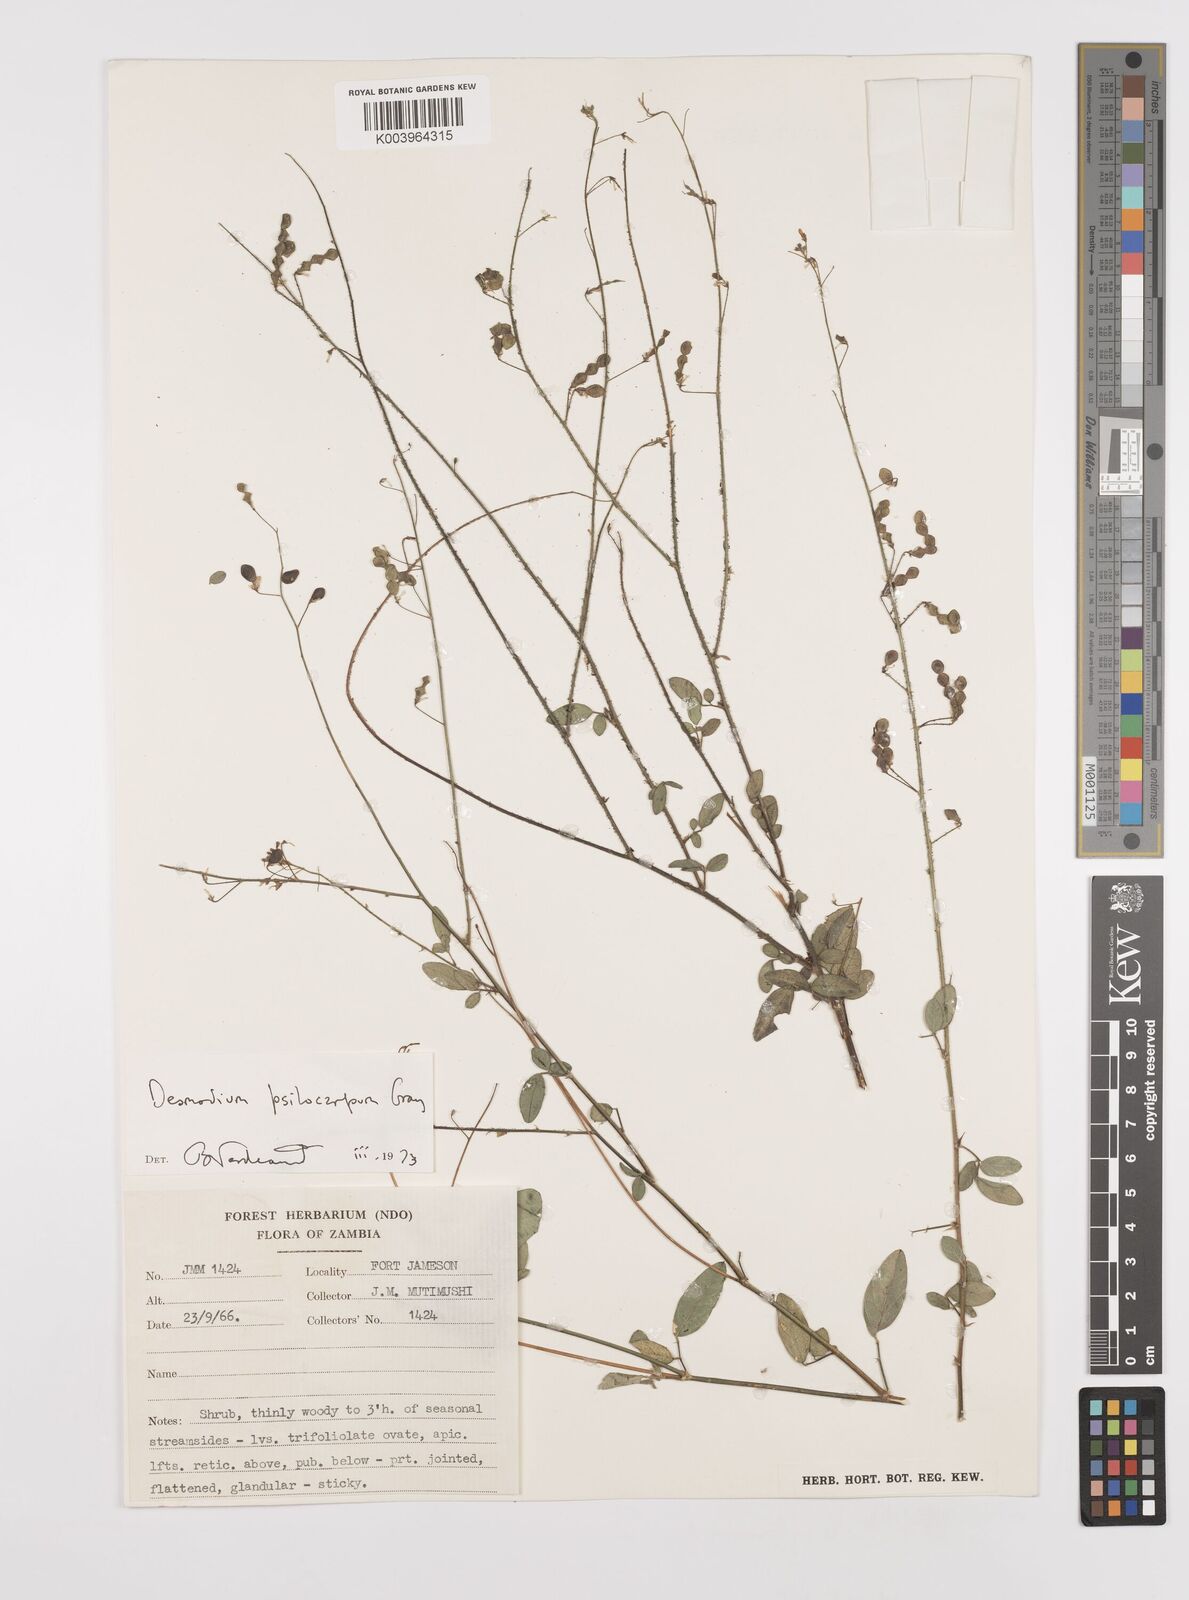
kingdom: Plantae
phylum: Tracheophyta
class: Magnoliopsida
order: Fabales
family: Fabaceae
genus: Desmodium
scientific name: Desmodium psilocarpum
